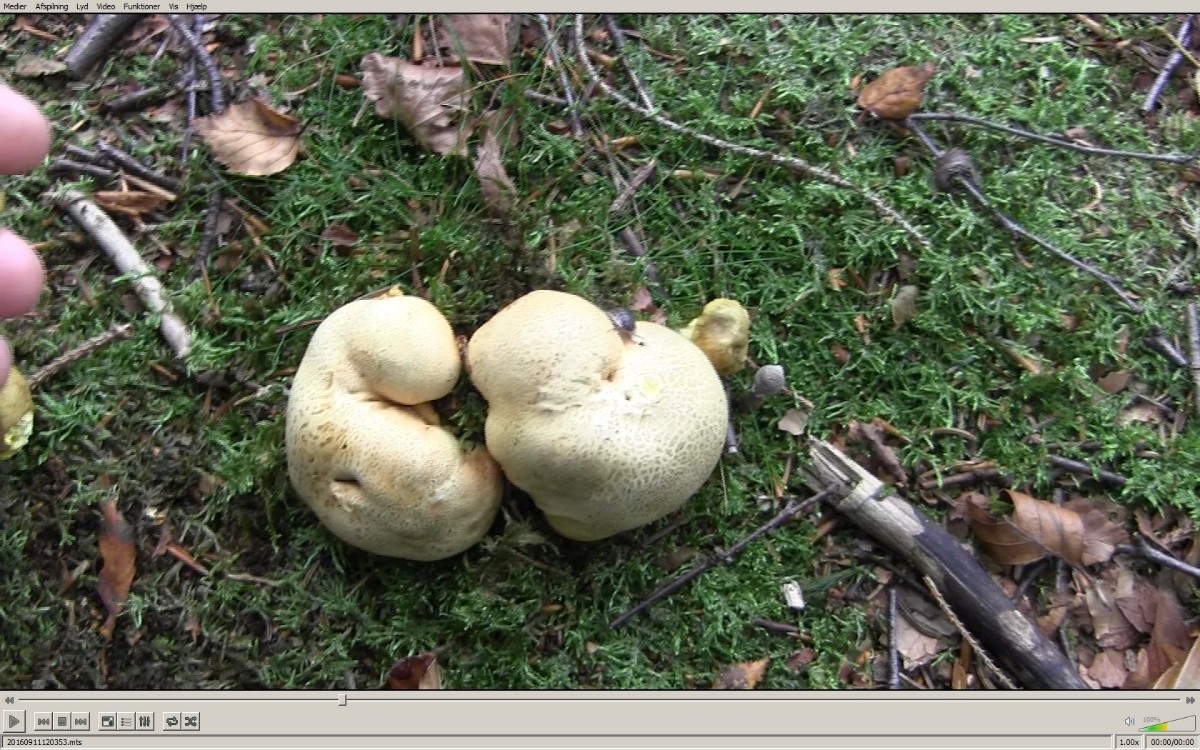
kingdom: Fungi
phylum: Basidiomycota
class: Agaricomycetes
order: Boletales
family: Boletaceae
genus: Pseudoboletus
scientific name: Pseudoboletus parasiticus
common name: snyltende rørhat
